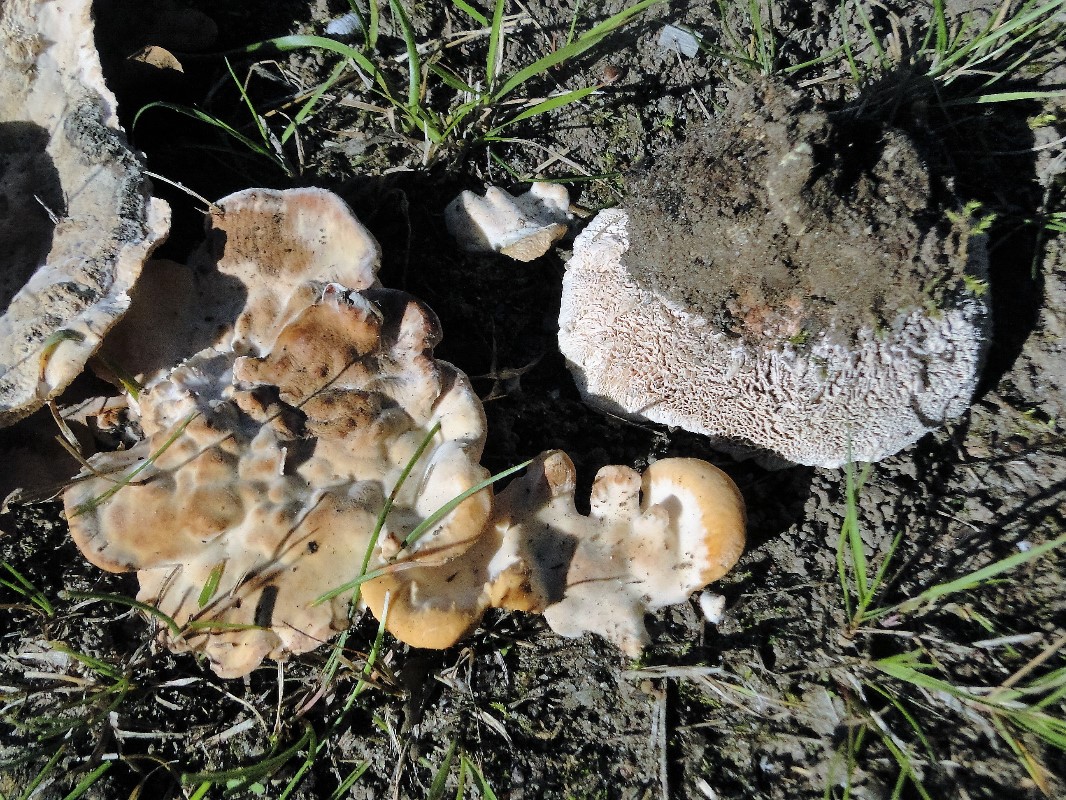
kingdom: Fungi
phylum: Basidiomycota
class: Agaricomycetes
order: Polyporales
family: Podoscyphaceae
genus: Abortiporus
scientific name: Abortiporus biennis
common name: rødmende pjalteporesvamp
